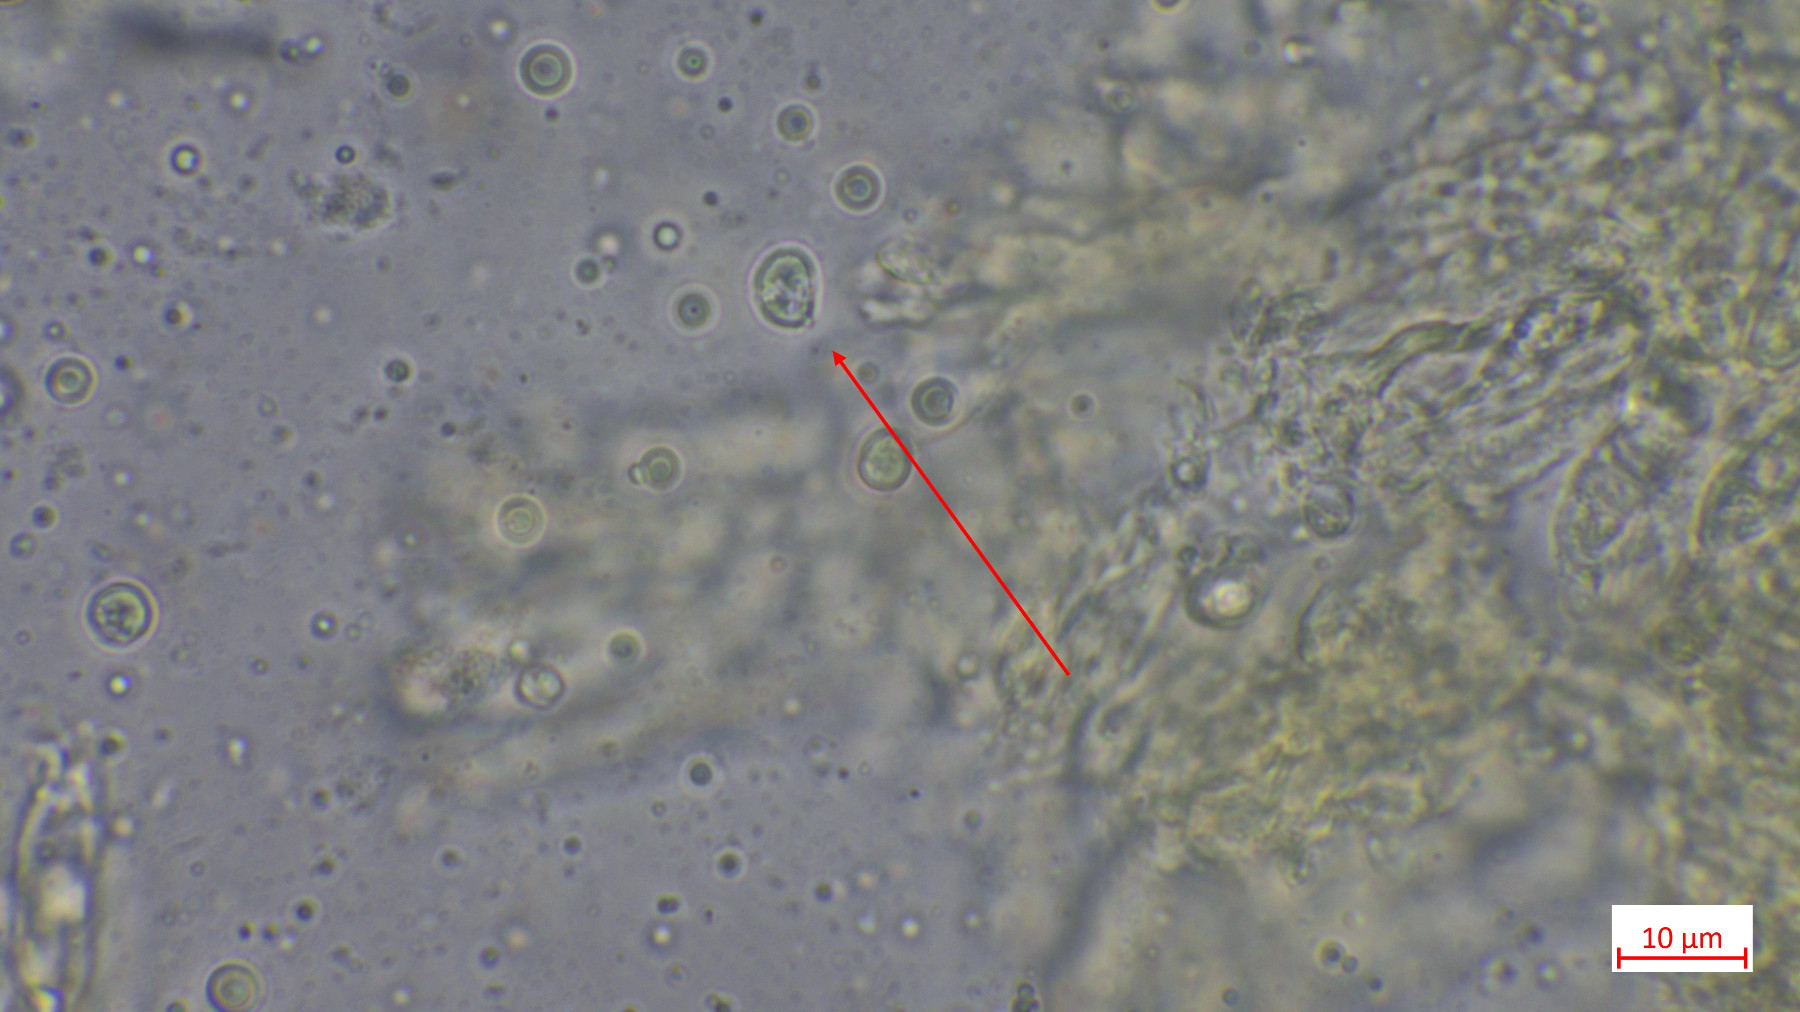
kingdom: Fungi
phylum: Basidiomycota
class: Agaricomycetes
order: Agaricales
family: Tricholomataceae
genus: Tricholoma
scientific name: Tricholoma umbonatum
